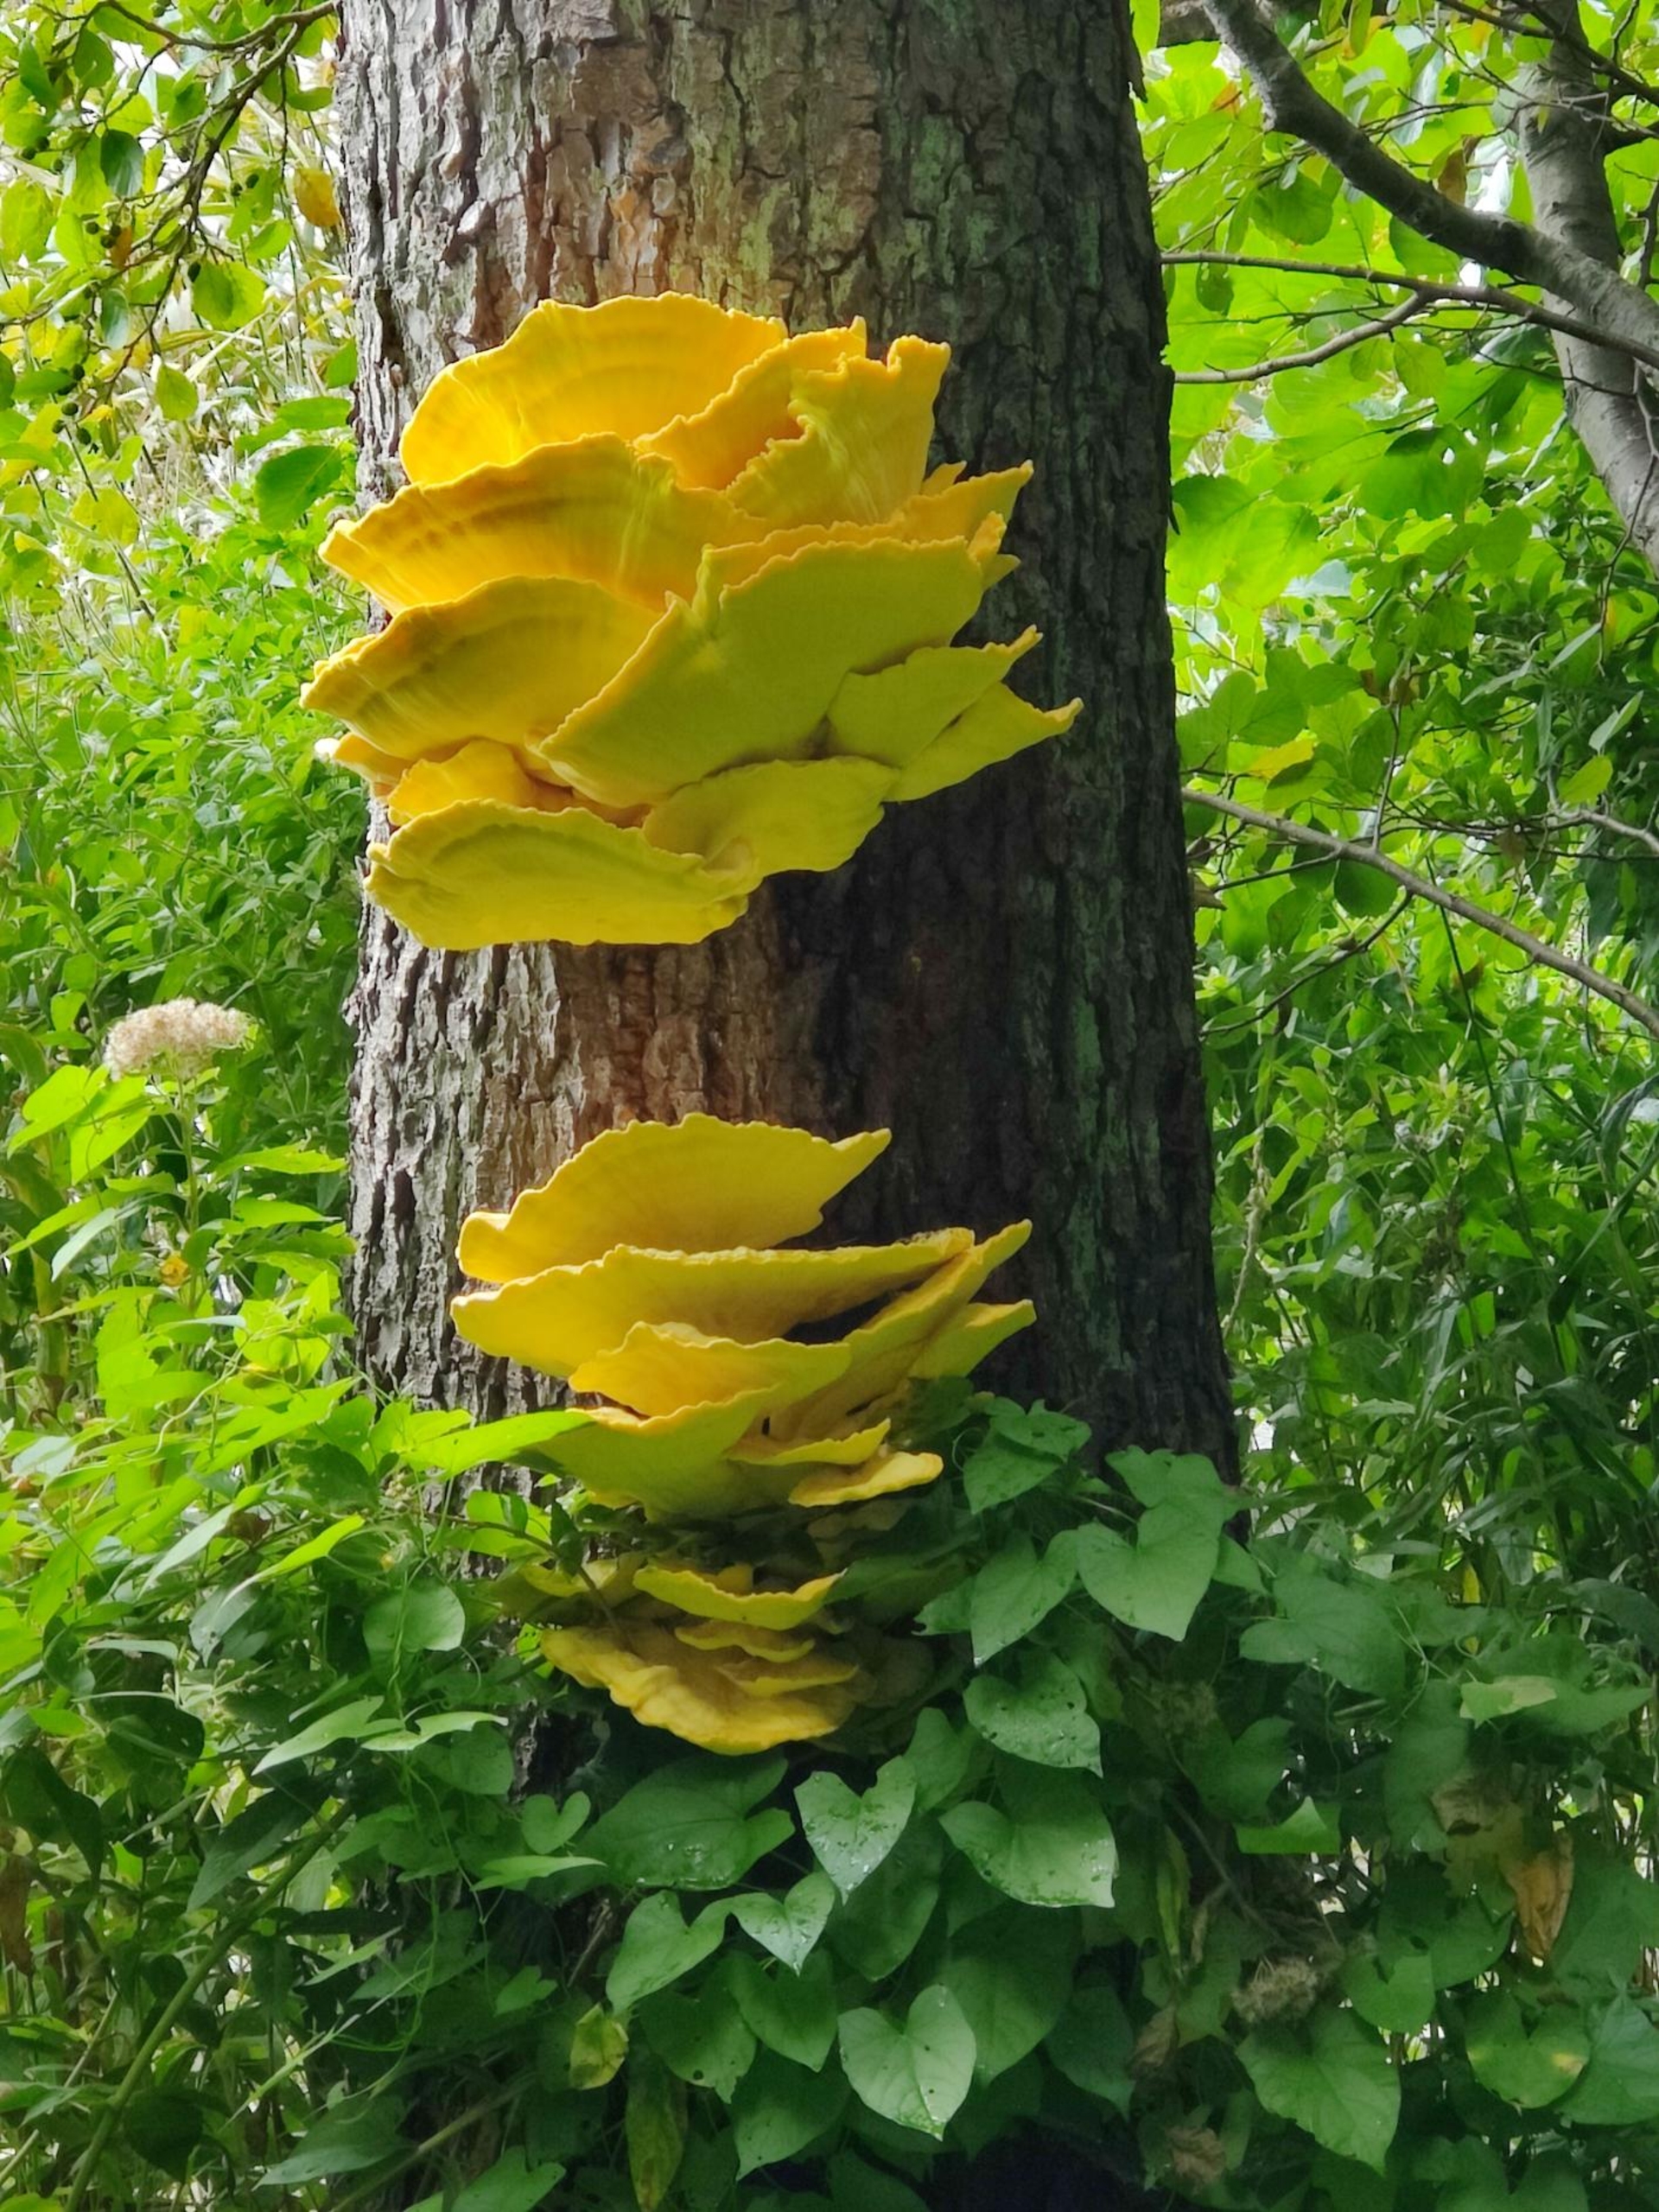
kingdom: Fungi
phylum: Basidiomycota
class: Agaricomycetes
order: Polyporales
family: Laetiporaceae
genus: Laetiporus
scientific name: Laetiporus sulphureus
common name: Svovlporesvamp
